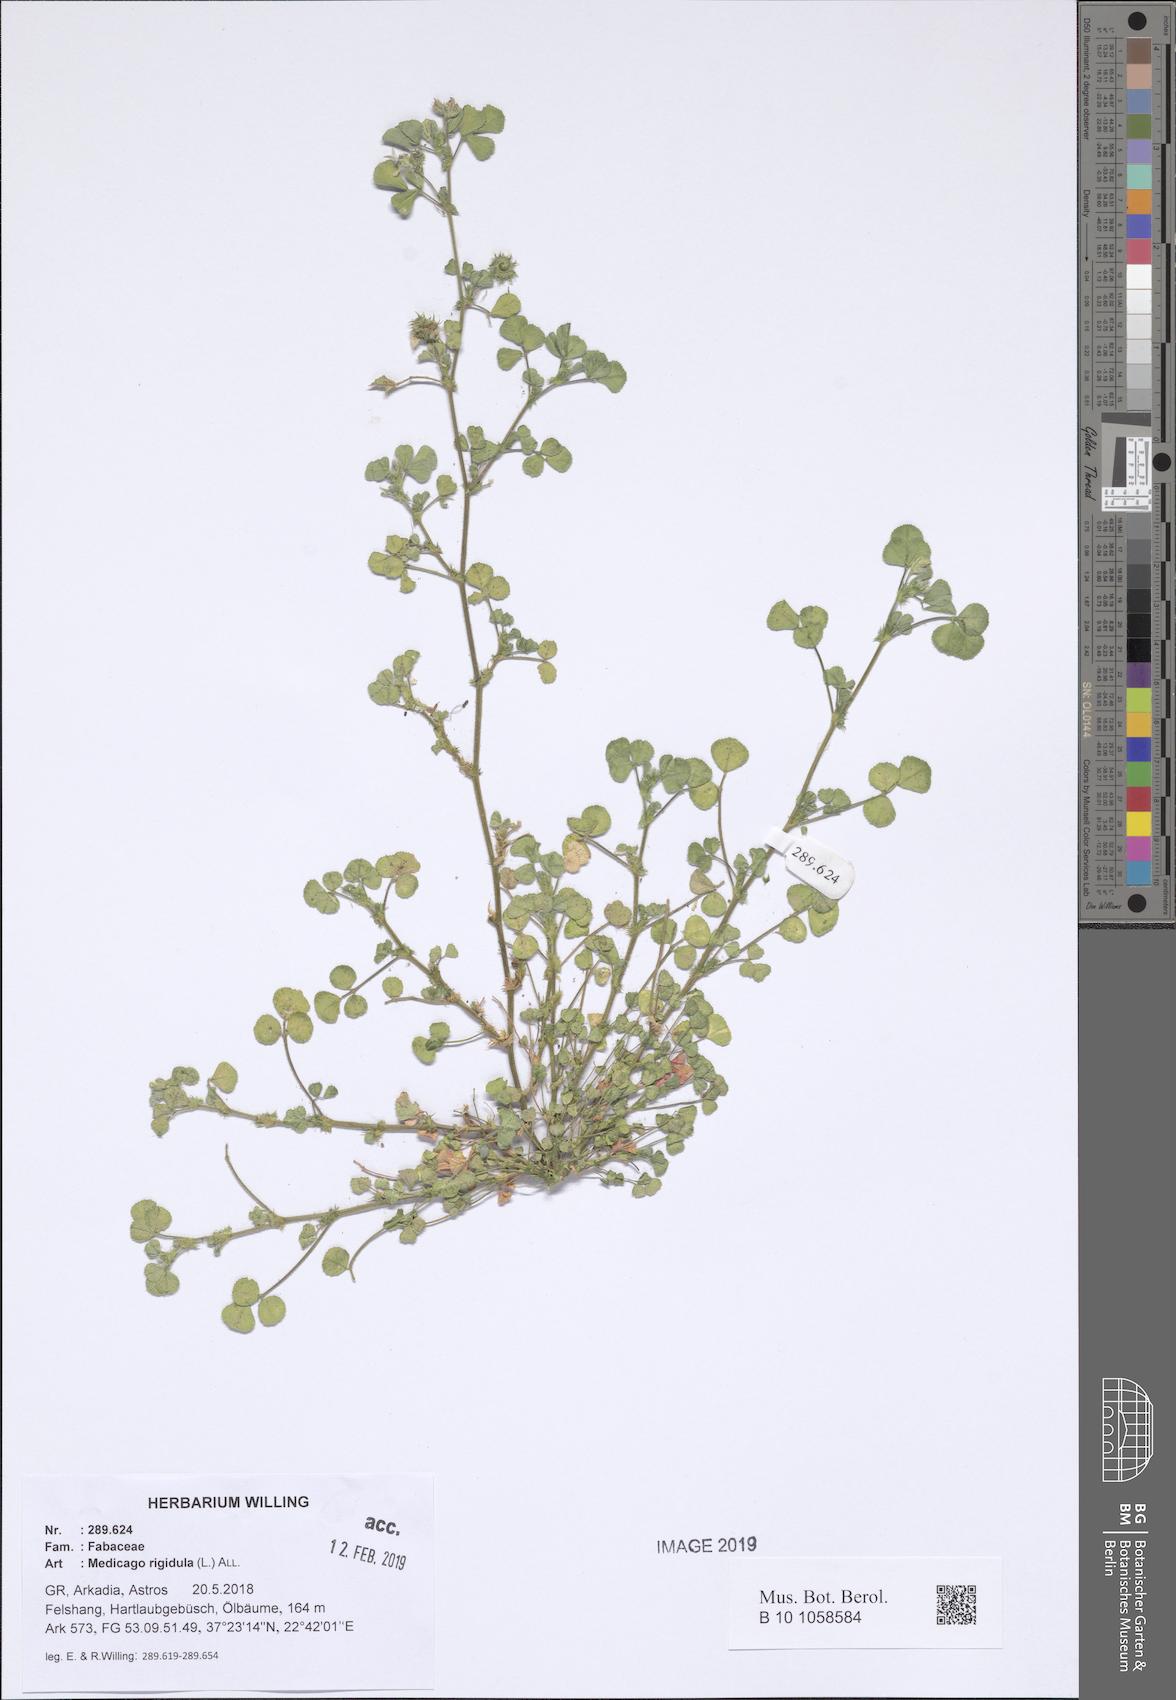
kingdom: Plantae
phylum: Tracheophyta
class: Magnoliopsida
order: Fabales
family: Fabaceae
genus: Medicago
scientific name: Medicago rigidula
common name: Tifton medic
